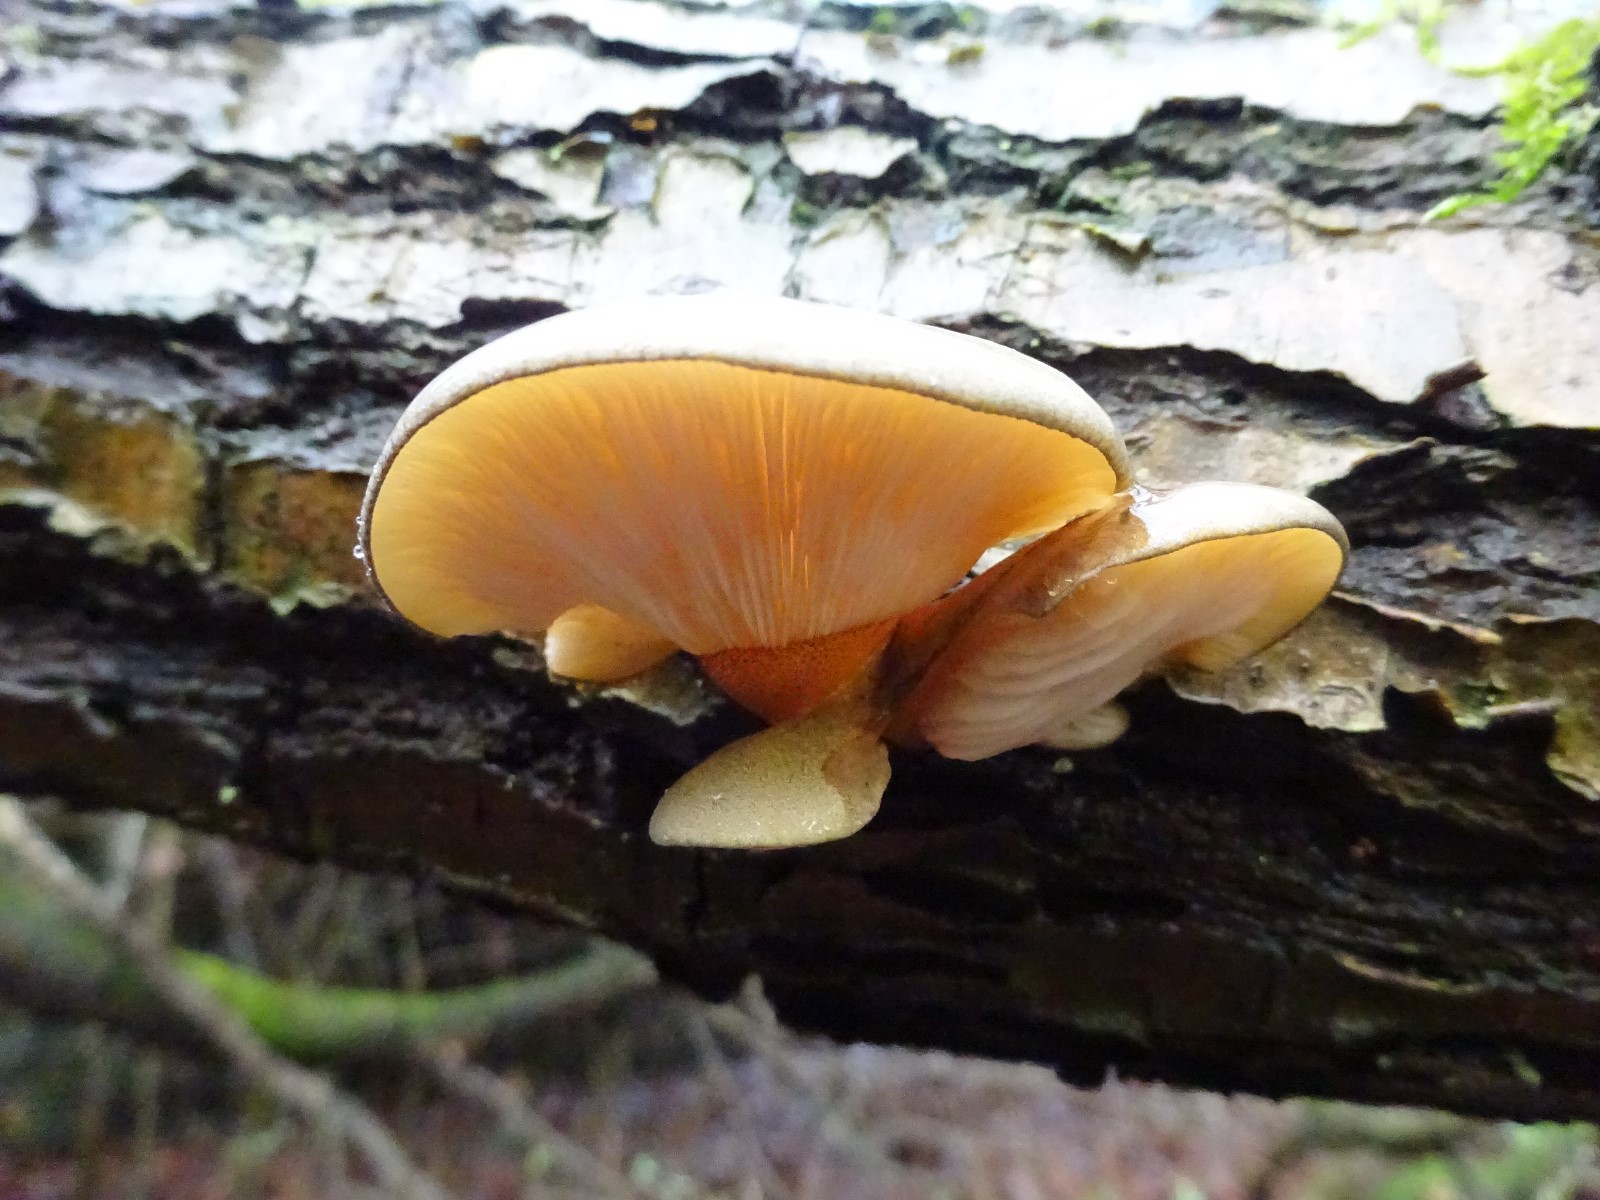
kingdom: Fungi
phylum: Basidiomycota
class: Agaricomycetes
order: Agaricales
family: Sarcomyxaceae
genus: Sarcomyxa
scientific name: Sarcomyxa serotina
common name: gummihat
